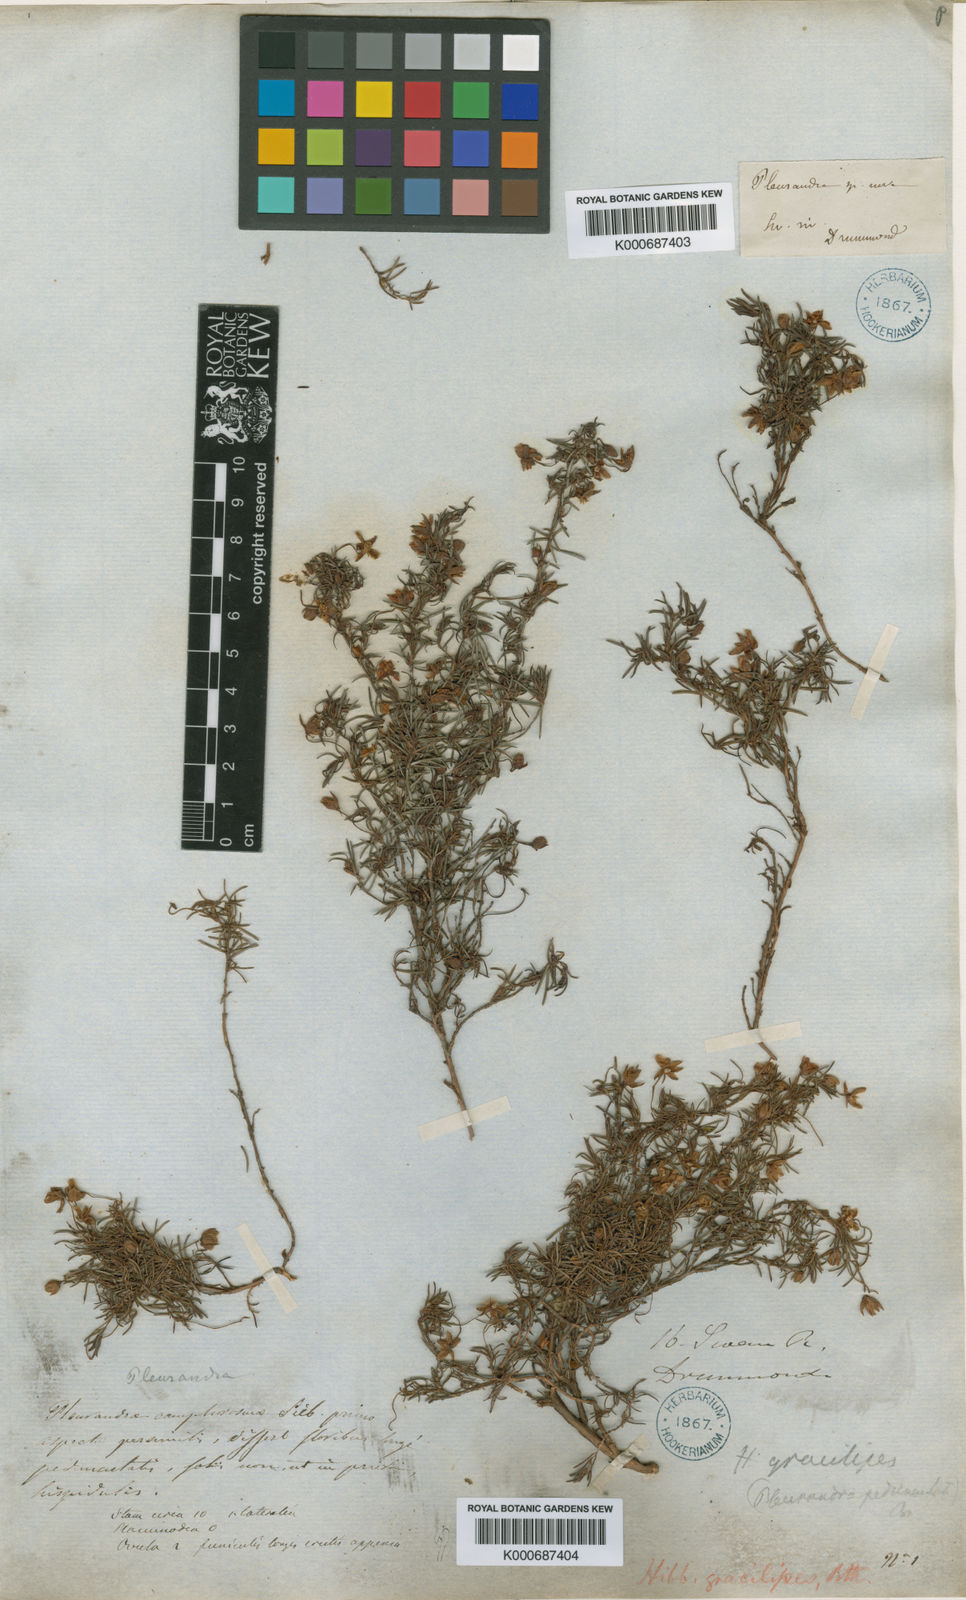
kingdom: Plantae
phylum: Tracheophyta
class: Magnoliopsida
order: Dilleniales
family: Dilleniaceae
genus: Hibbertia
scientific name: Hibbertia gracilipes
